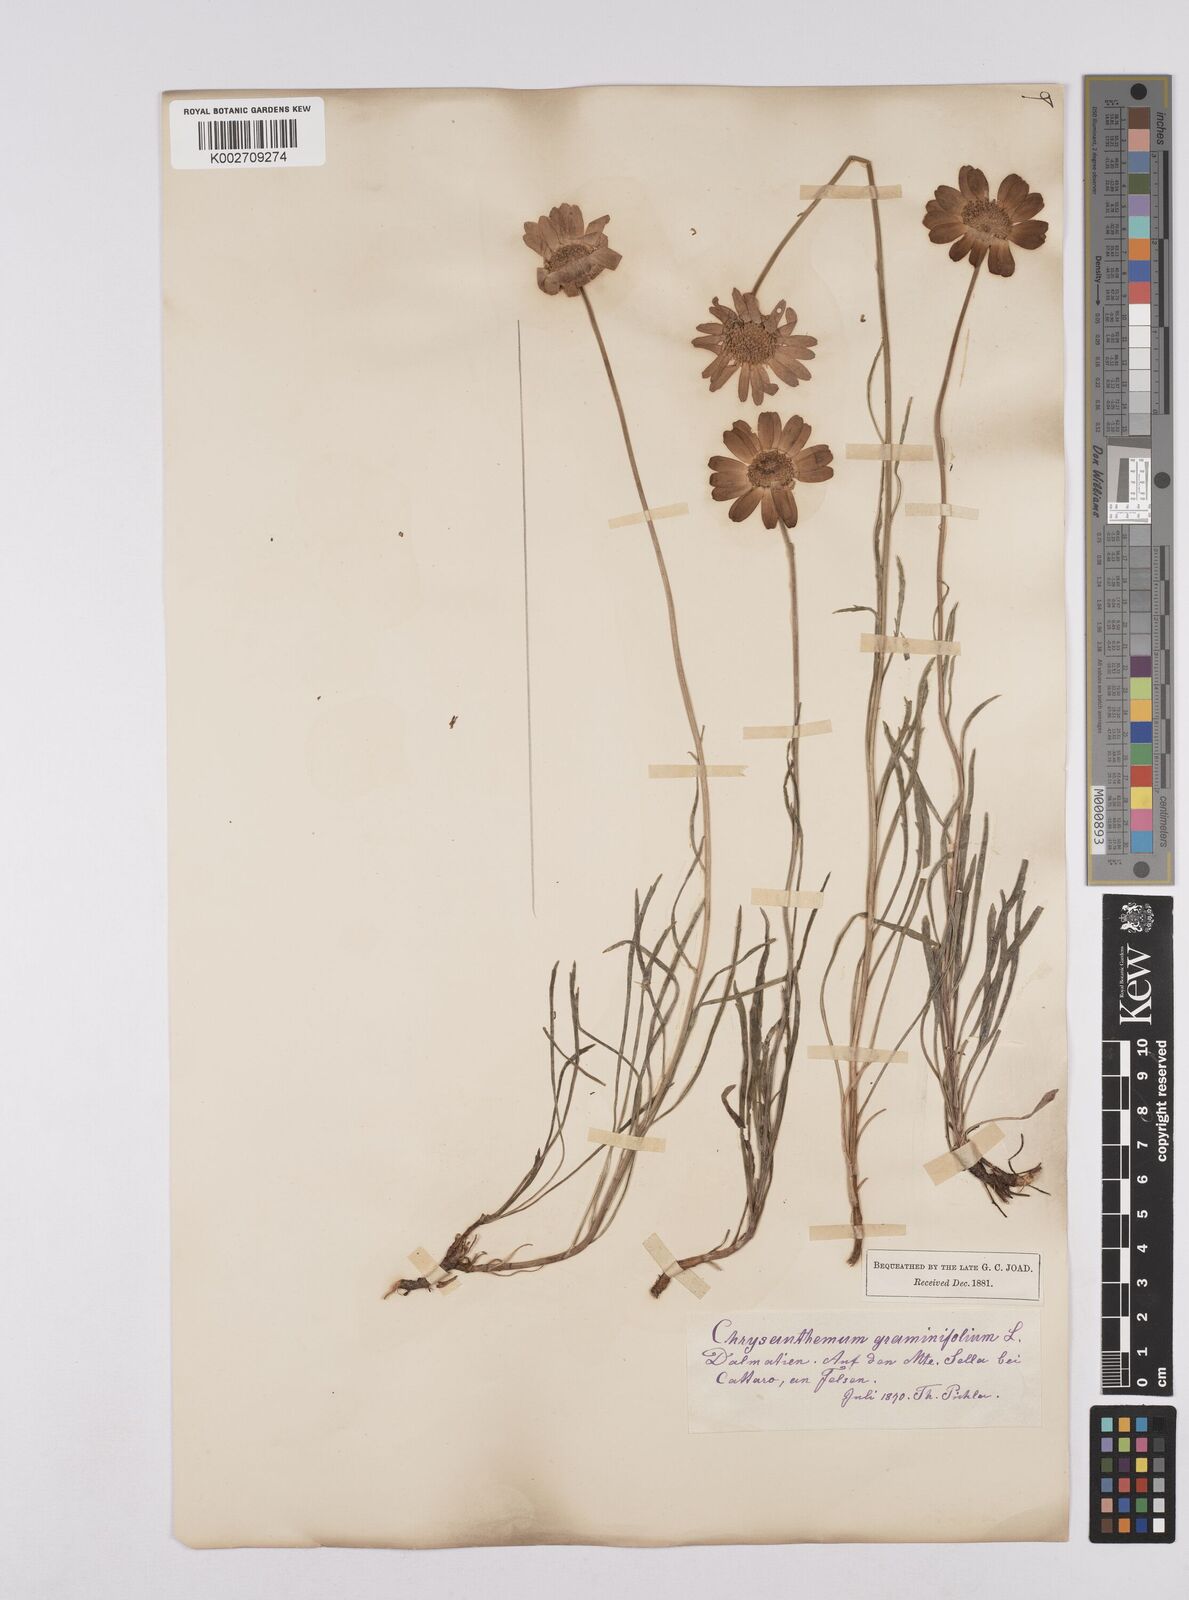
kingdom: Plantae
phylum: Tracheophyta
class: Magnoliopsida
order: Asterales
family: Asteraceae
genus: Leucanthemum
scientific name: Leucanthemum chloroticum
